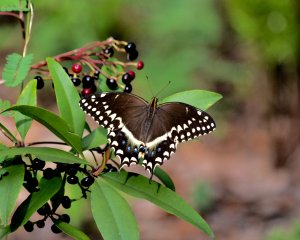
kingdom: Animalia
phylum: Arthropoda
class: Insecta
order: Lepidoptera
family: Papilionidae
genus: Pterourus
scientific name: Pterourus palamedes
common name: Palamedes Swallowtail
